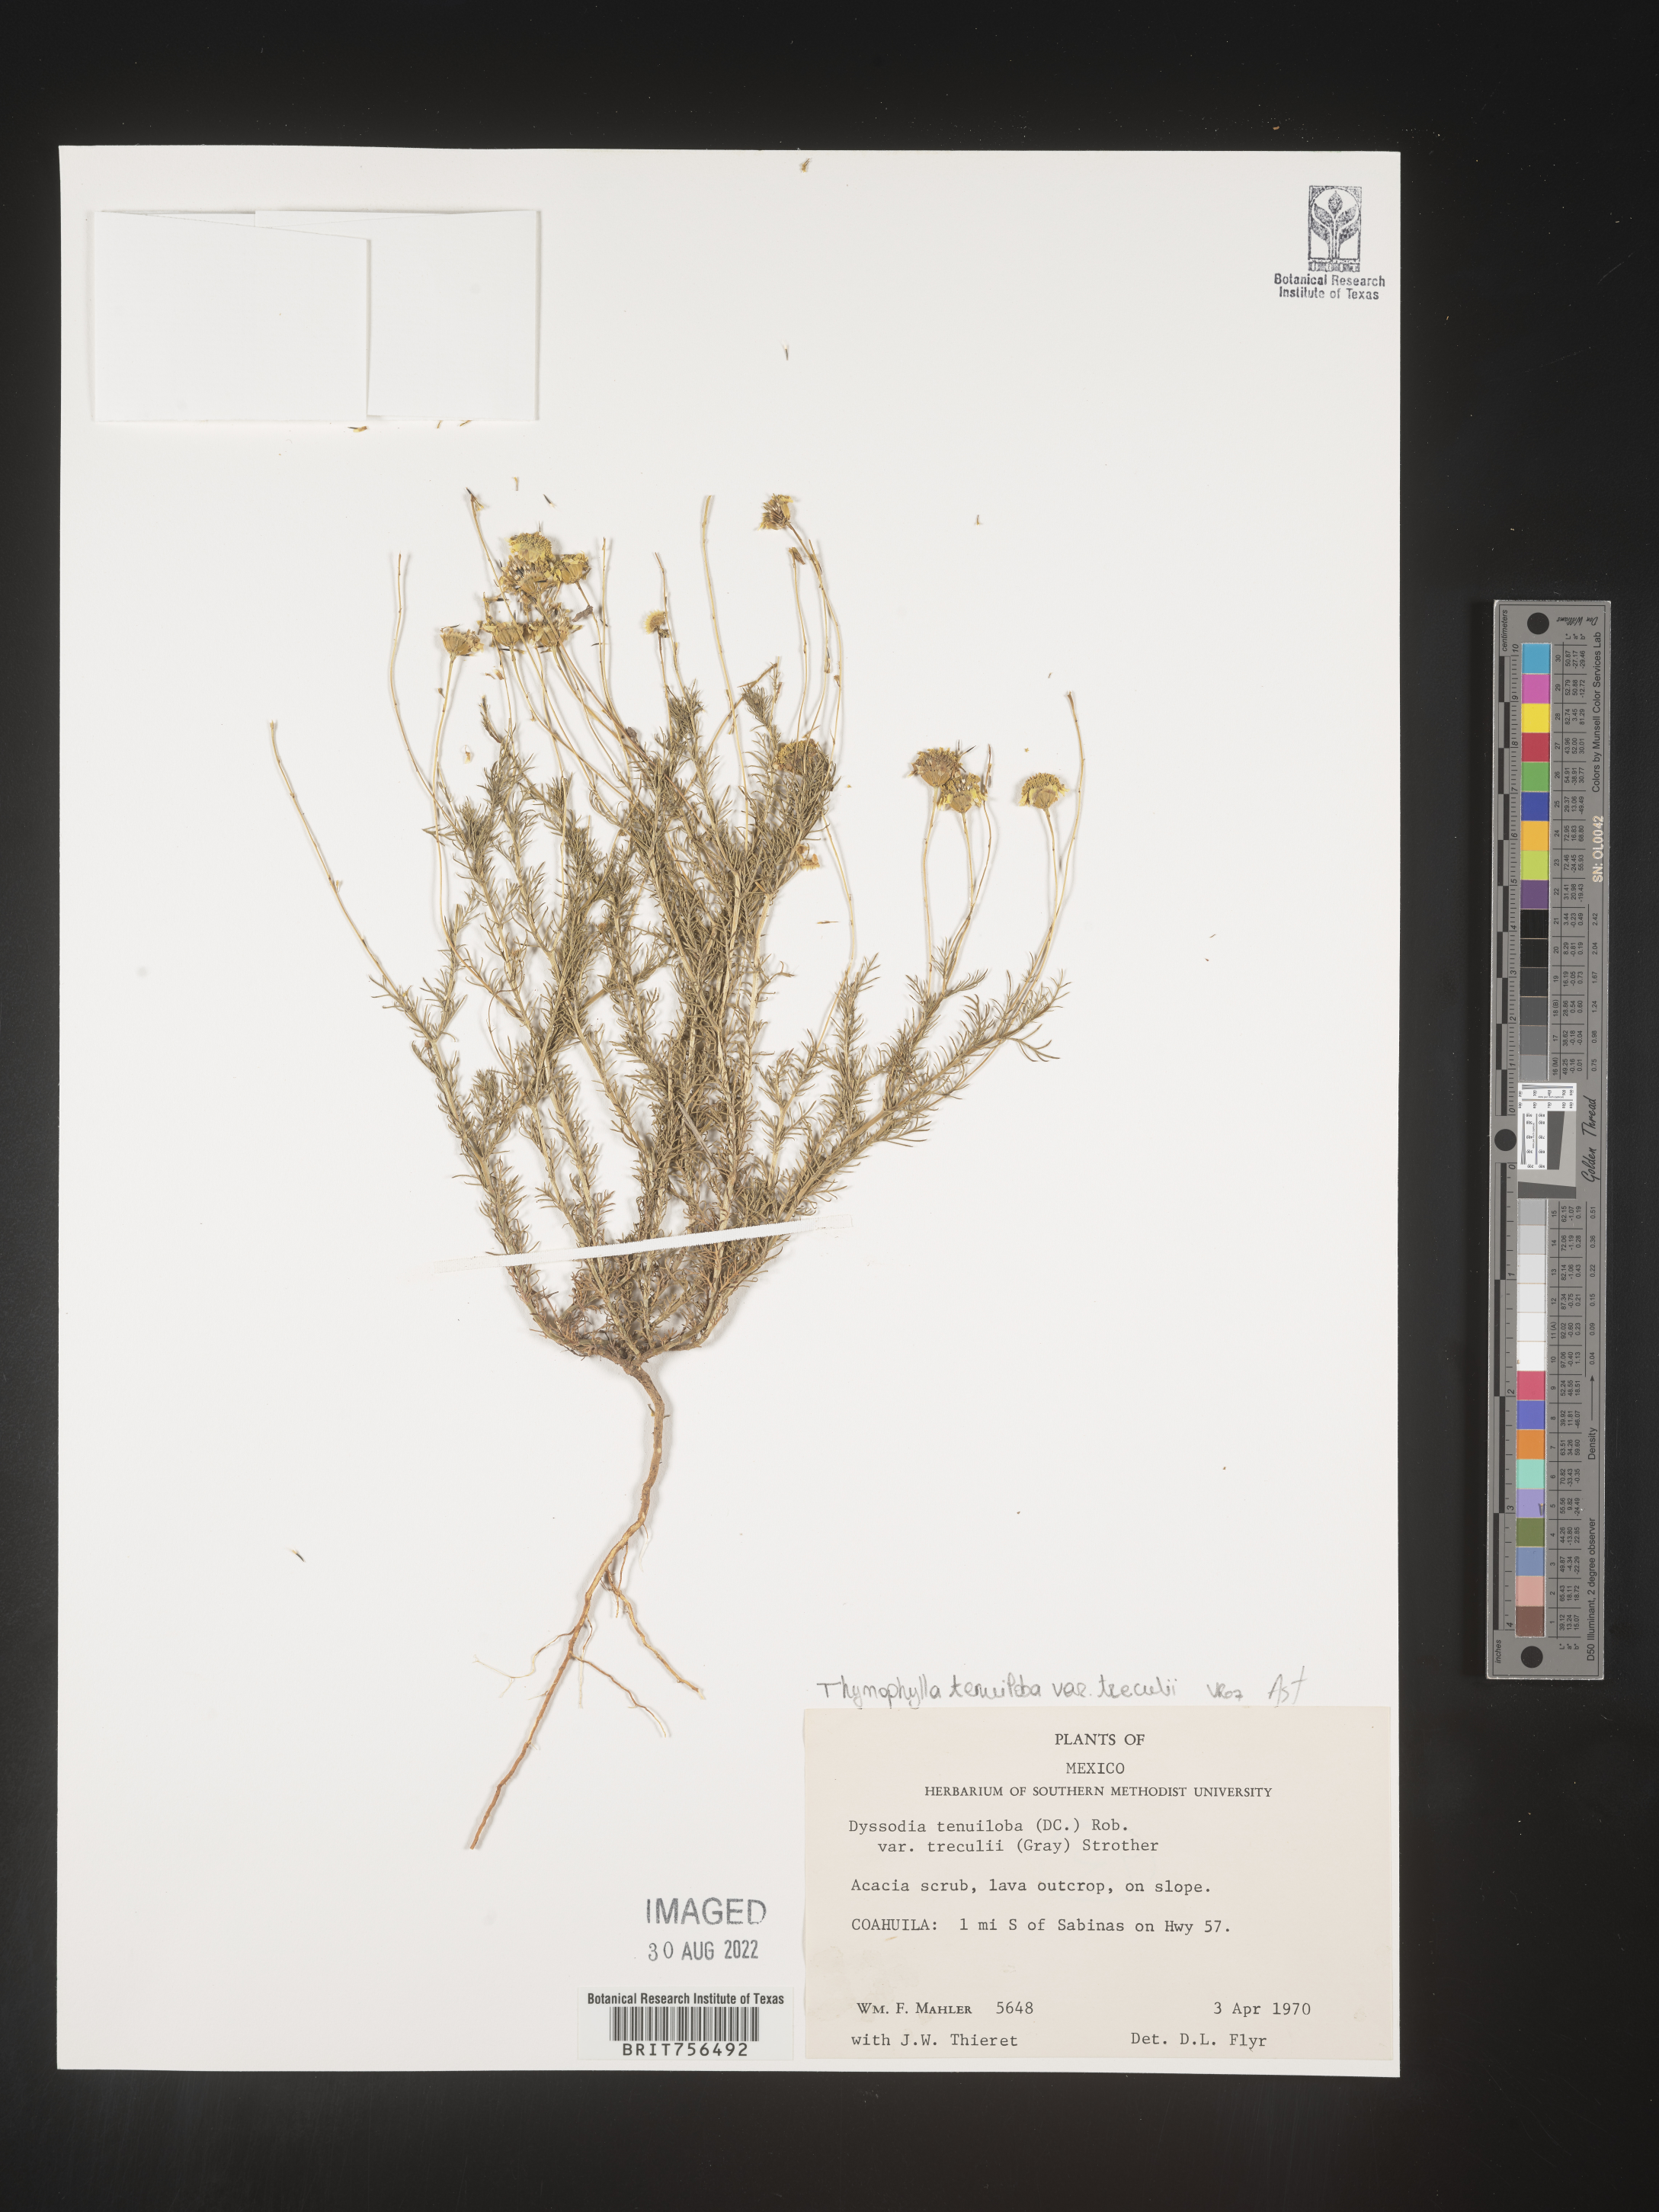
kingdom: Plantae
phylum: Tracheophyta
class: Magnoliopsida
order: Asterales
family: Asteraceae
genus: Thymophylla
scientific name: Thymophylla tenuiloba
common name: Dahlberg's daisy
